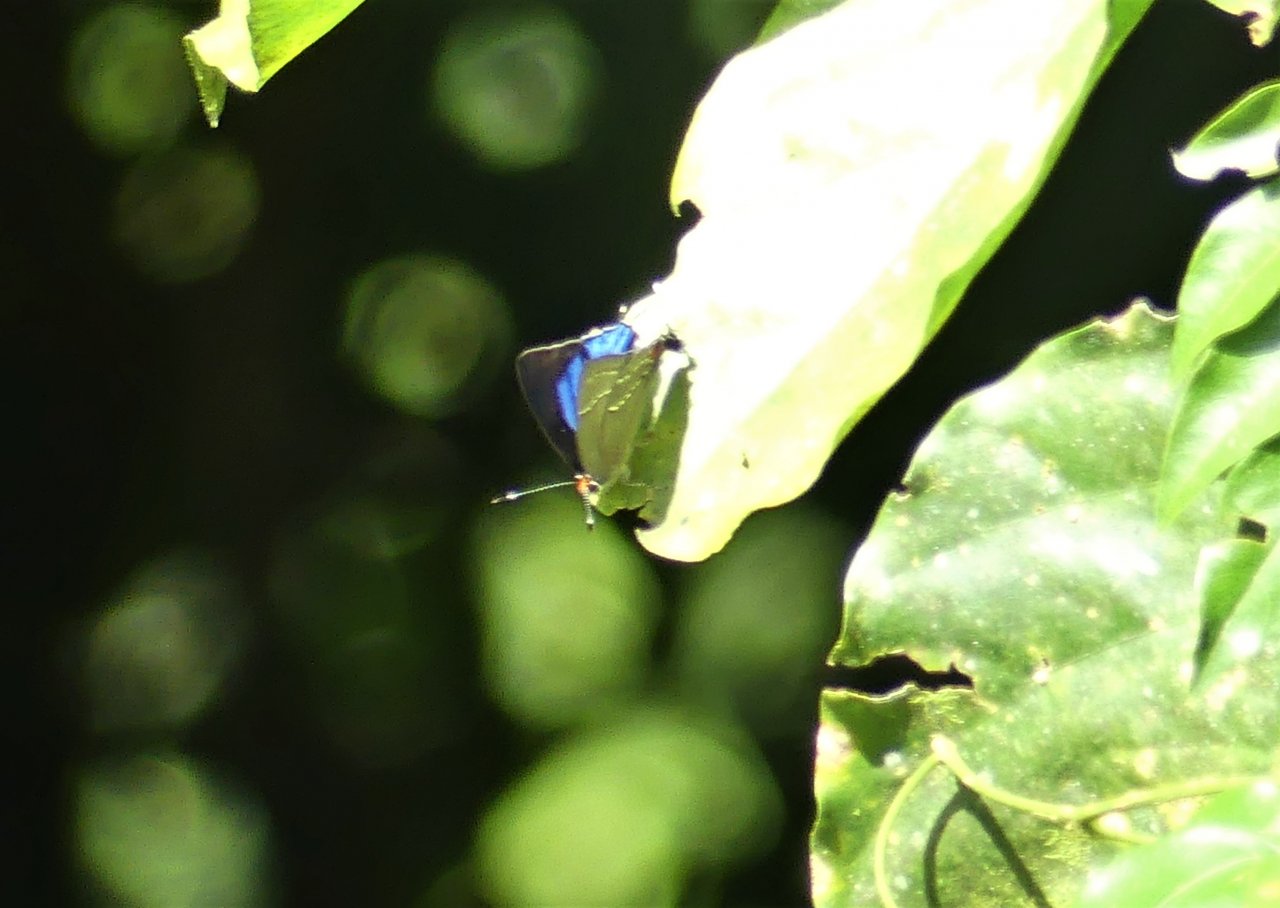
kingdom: Animalia
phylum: Arthropoda
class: Insecta
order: Lepidoptera
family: Lycaenidae
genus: Strymon
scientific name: Strymon gabatha
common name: Great Scrub-Hairstreak
